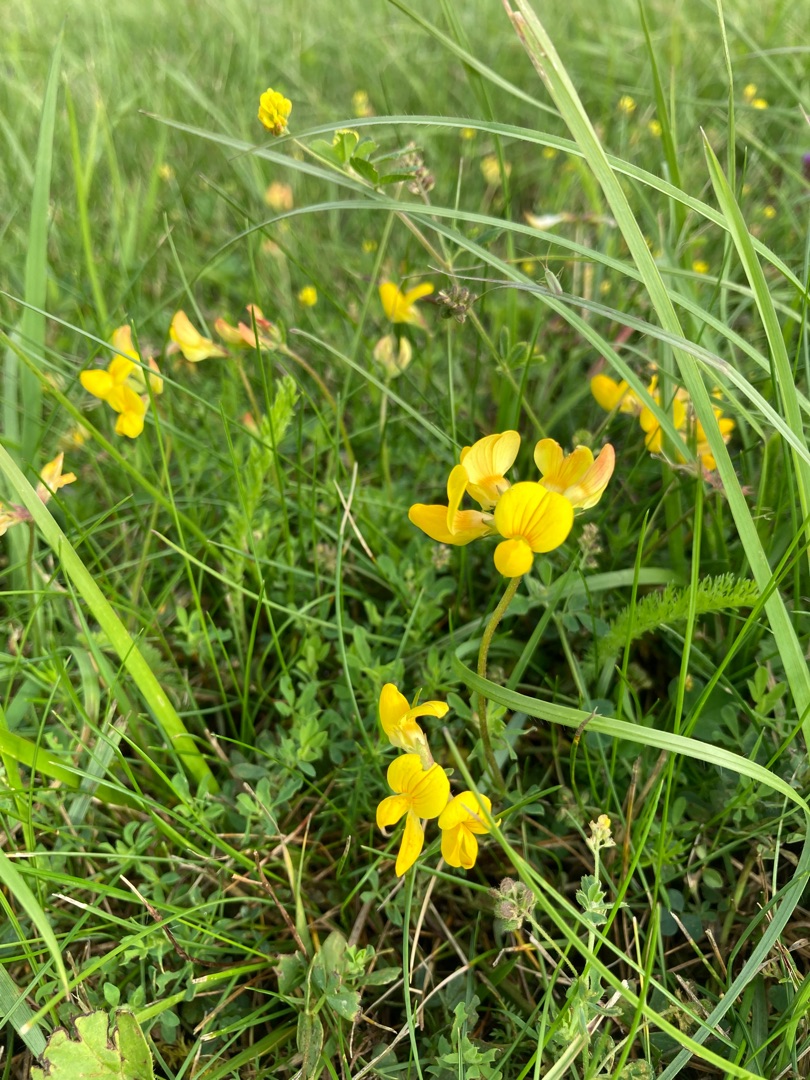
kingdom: Plantae
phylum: Tracheophyta
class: Magnoliopsida
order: Fabales
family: Fabaceae
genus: Lotus
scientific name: Lotus corniculatus
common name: Almindelig kællingetand
